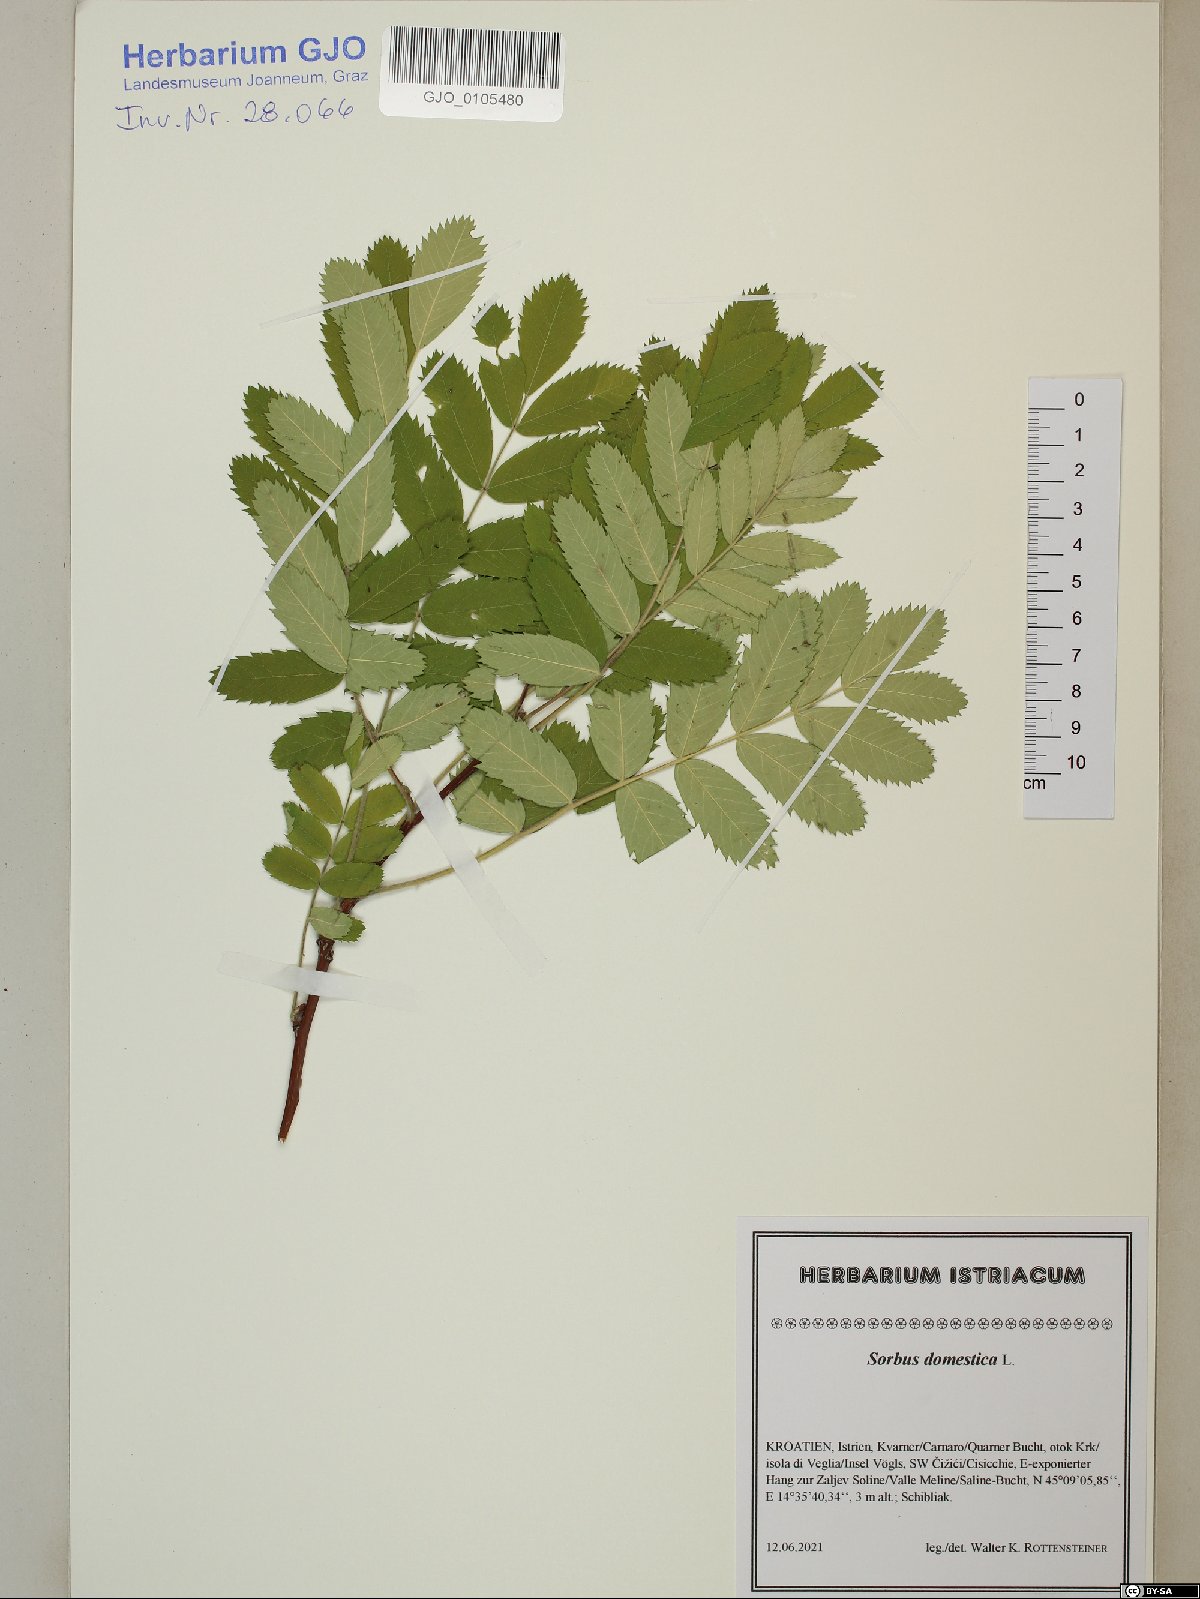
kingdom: Plantae
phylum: Tracheophyta
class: Magnoliopsida
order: Rosales
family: Rosaceae
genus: Cormus
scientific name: Cormus domestica
